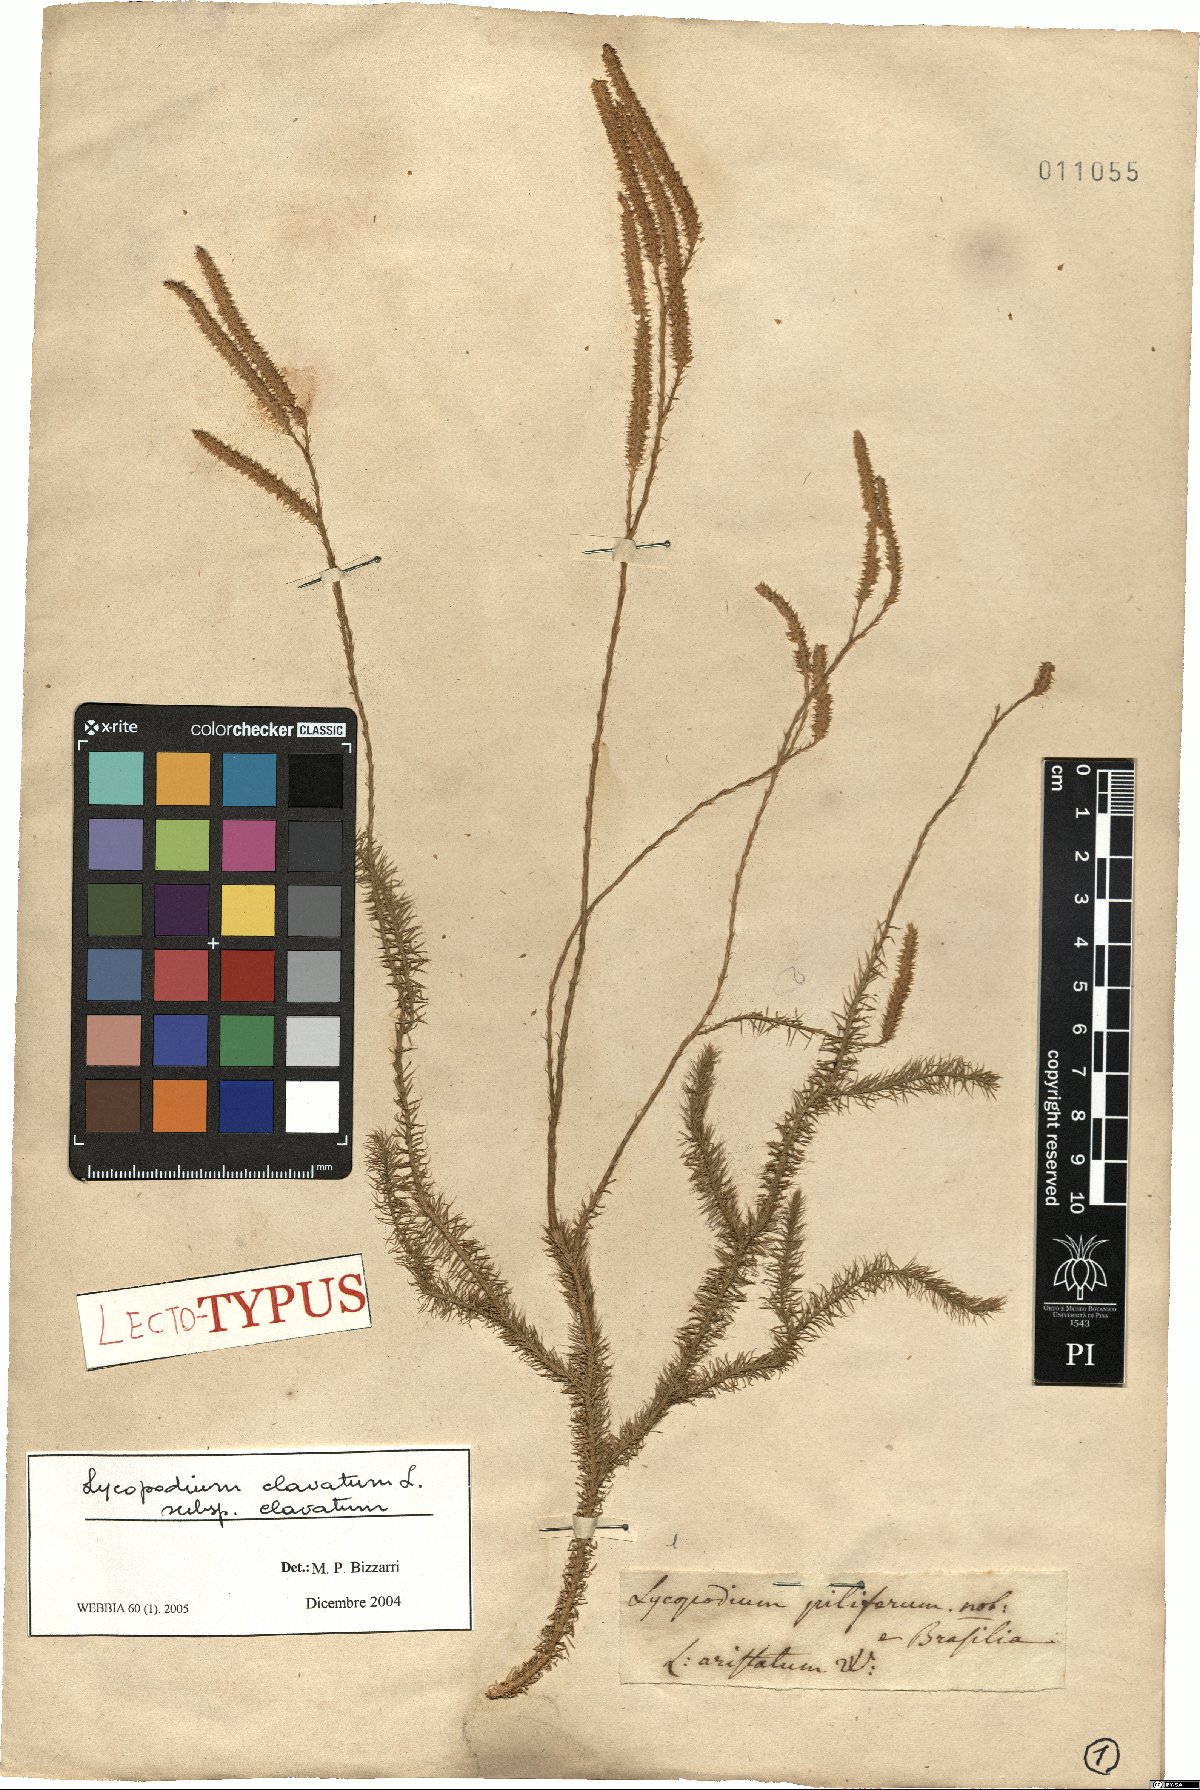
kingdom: Plantae
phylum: Tracheophyta
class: Lycopodiopsida
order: Lycopodiales
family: Lycopodiaceae
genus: Lycopodium
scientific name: Lycopodium clavatum
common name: Stag's-horn clubmoss
